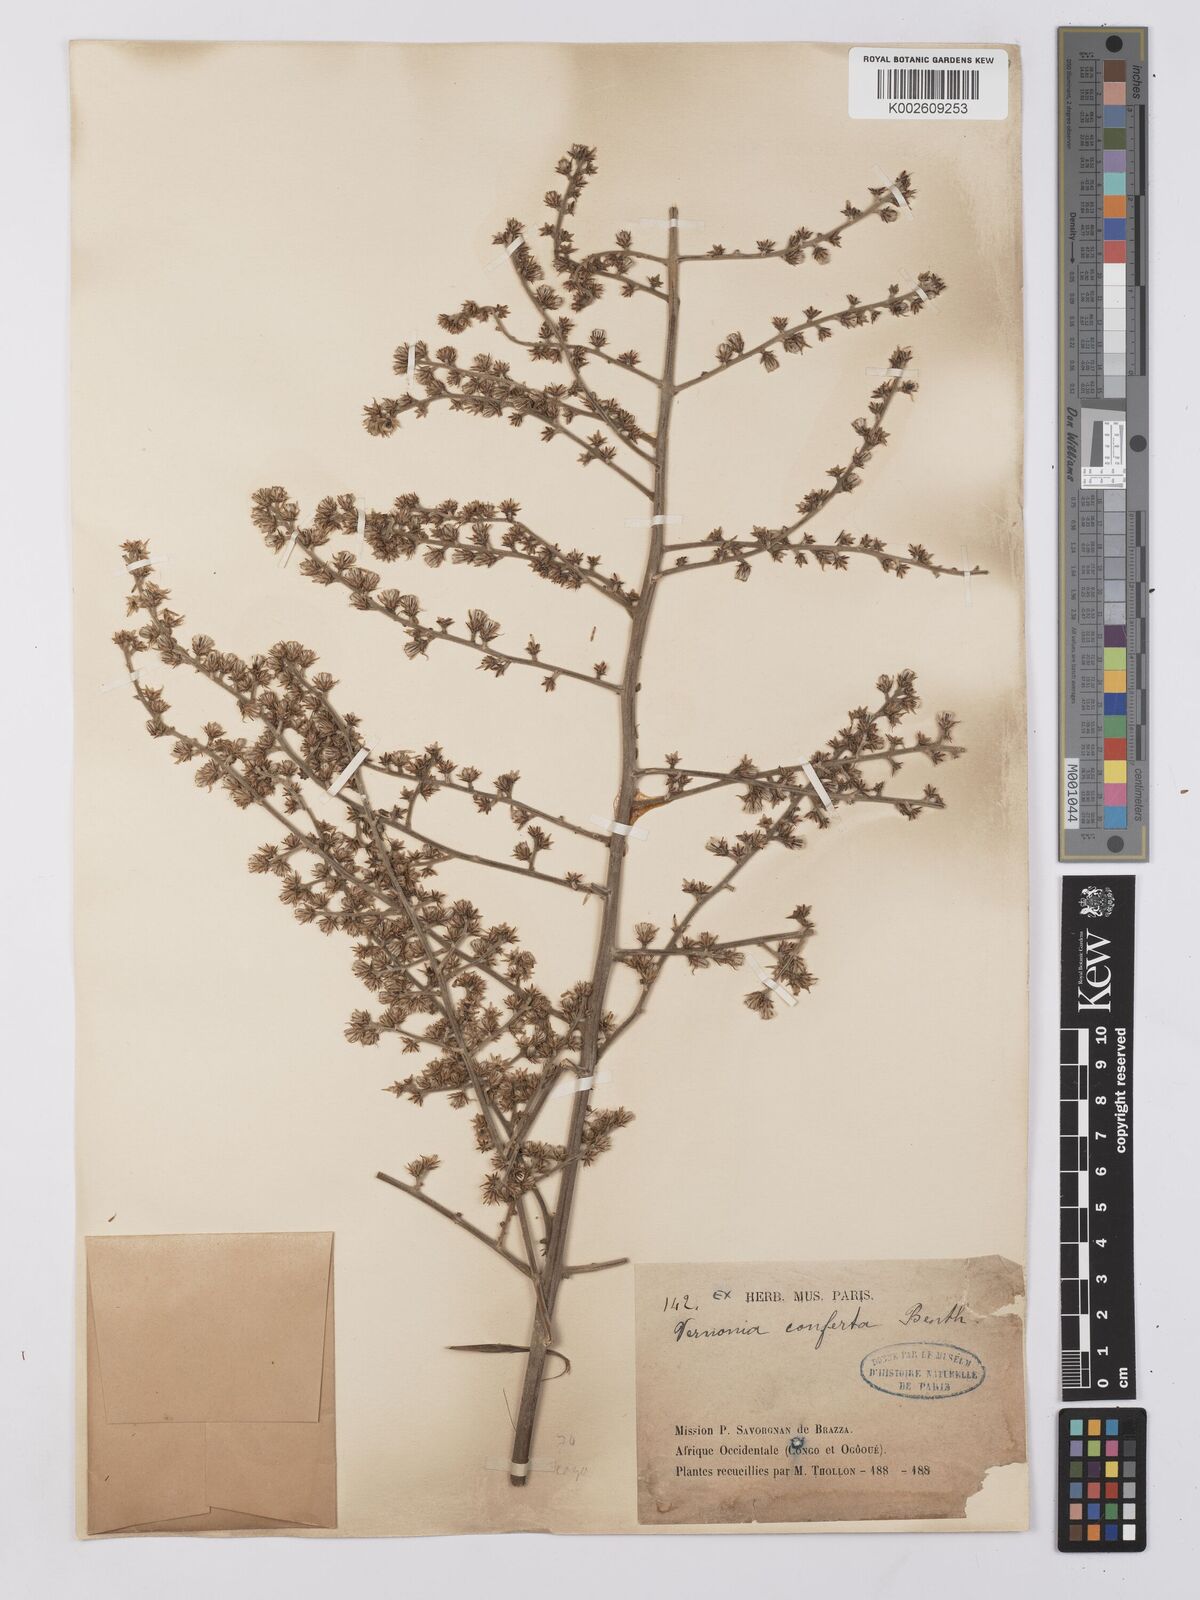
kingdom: Plantae
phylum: Tracheophyta
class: Magnoliopsida
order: Asterales
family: Asteraceae
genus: Monosis
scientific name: Monosis conferta
